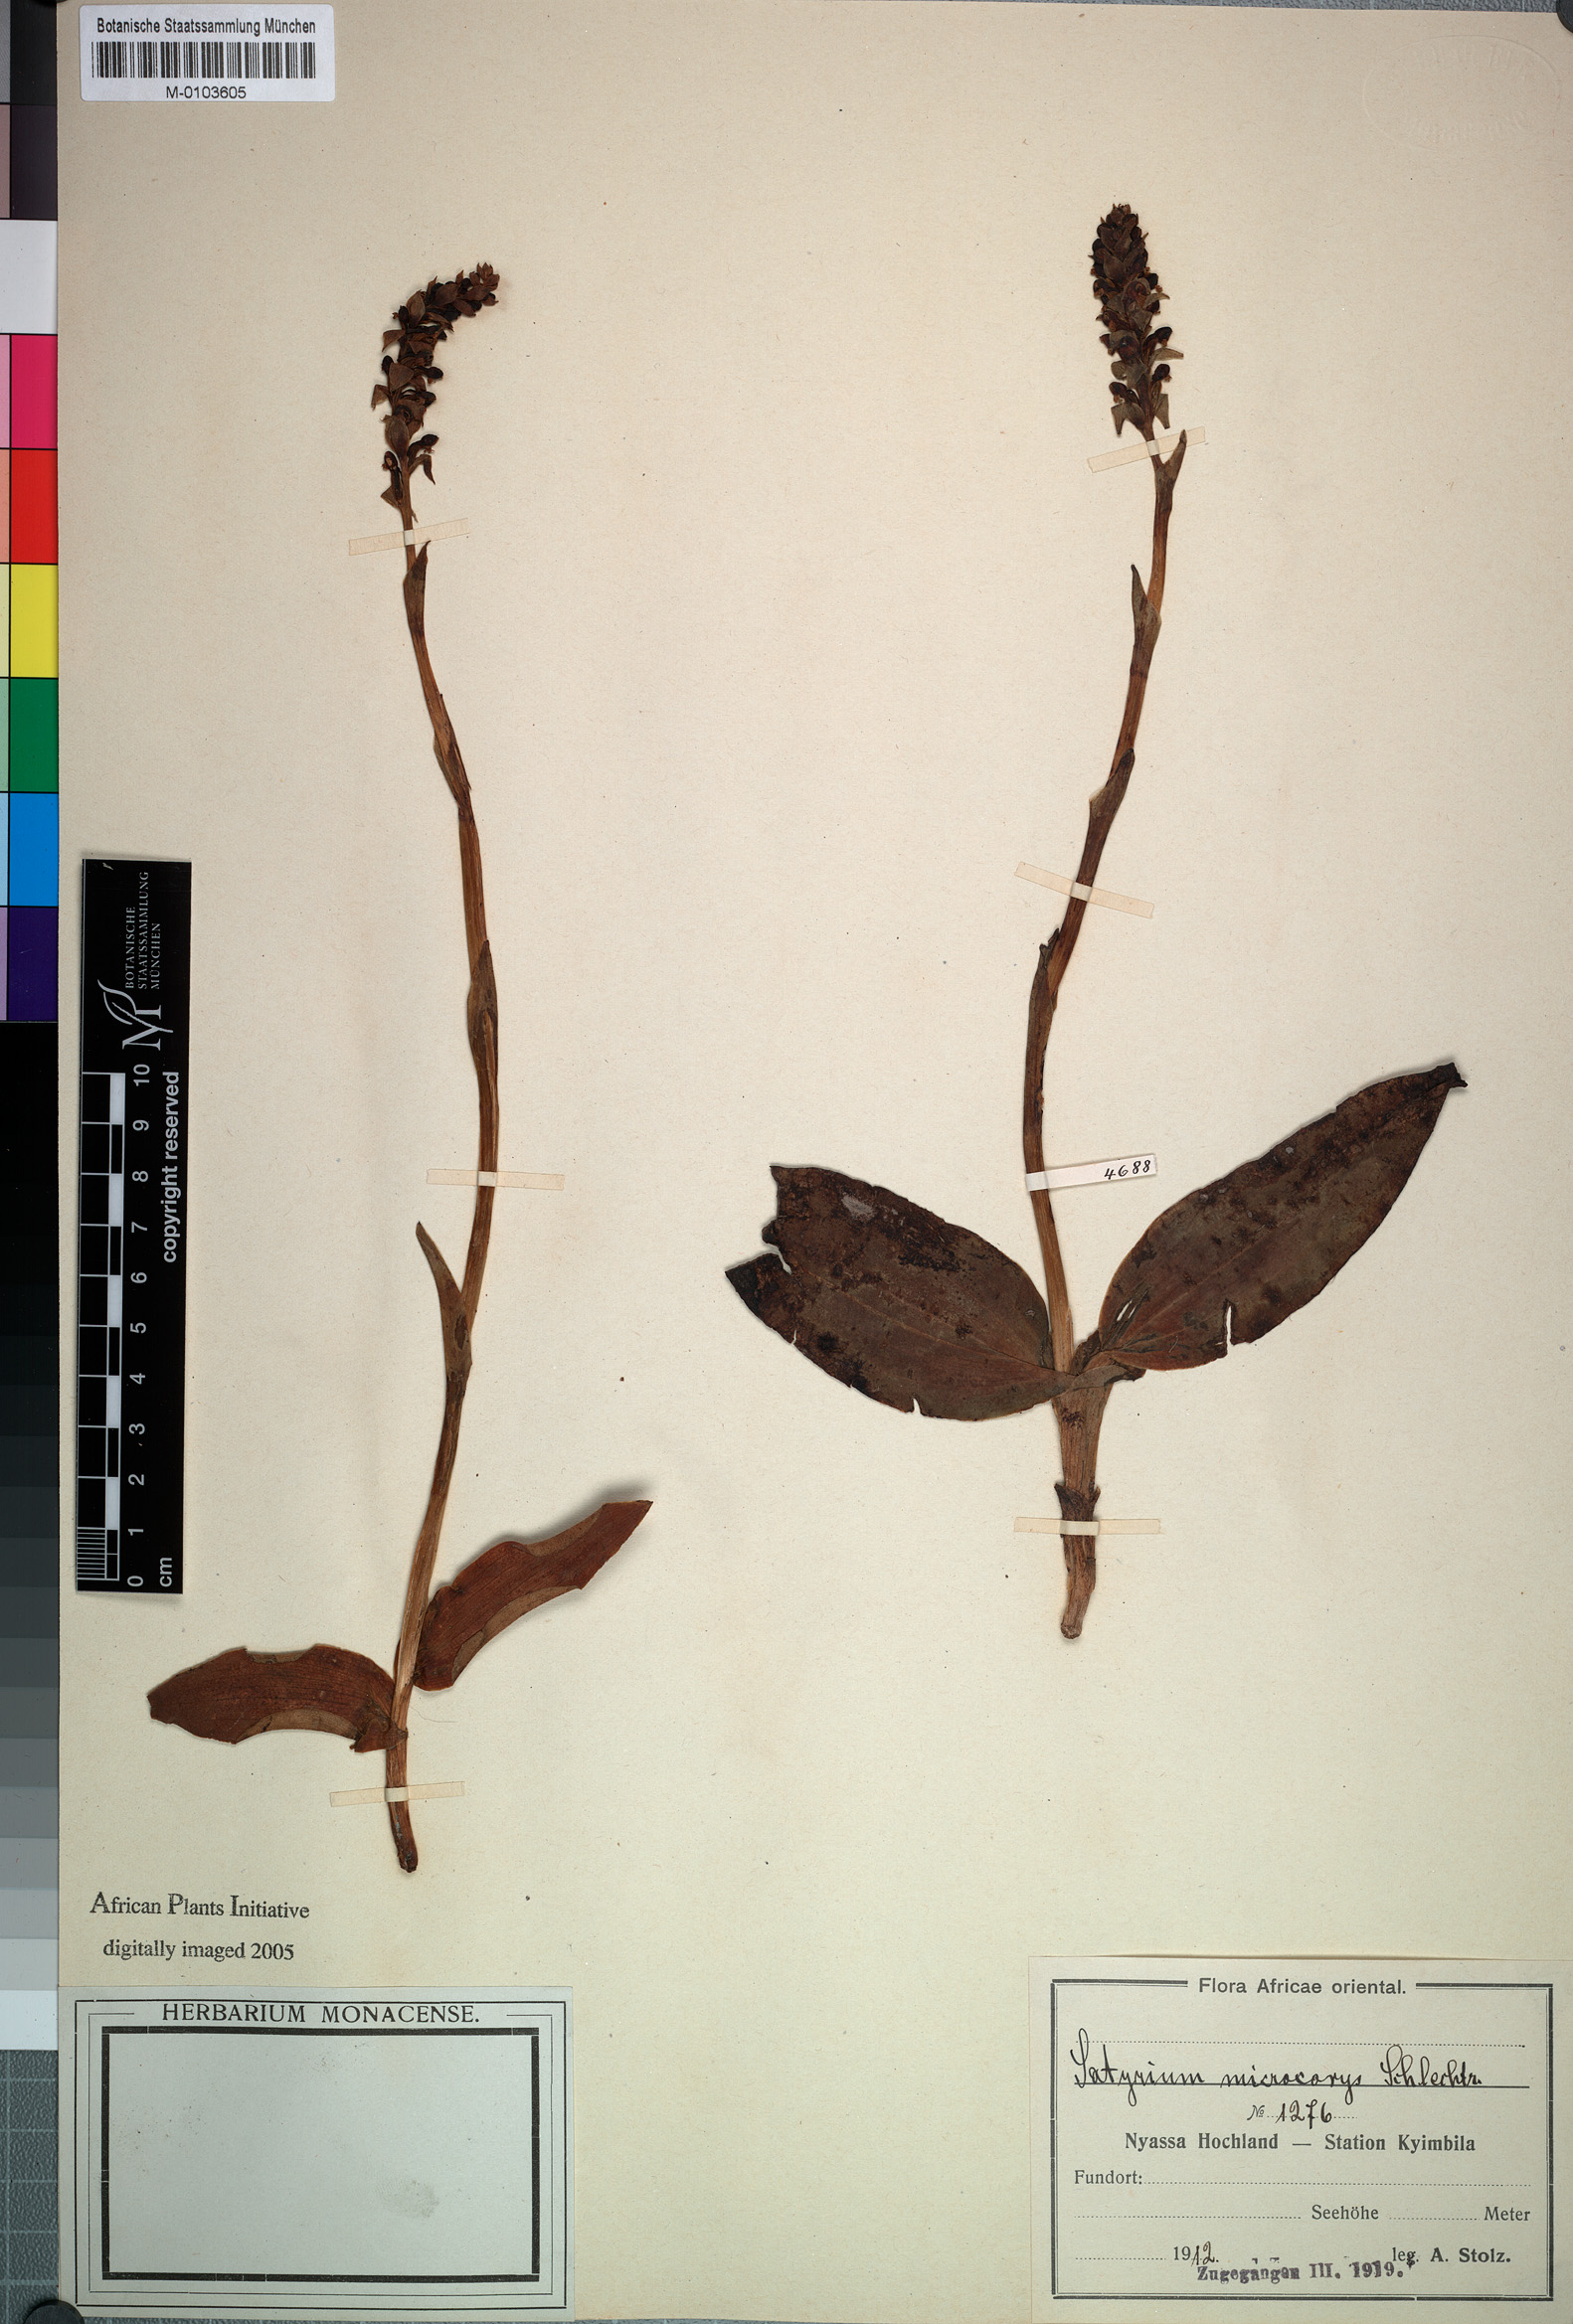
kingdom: Plantae
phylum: Tracheophyta
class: Liliopsida
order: Asparagales
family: Orchidaceae
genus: Satyrium
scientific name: Satyrium microcorys
